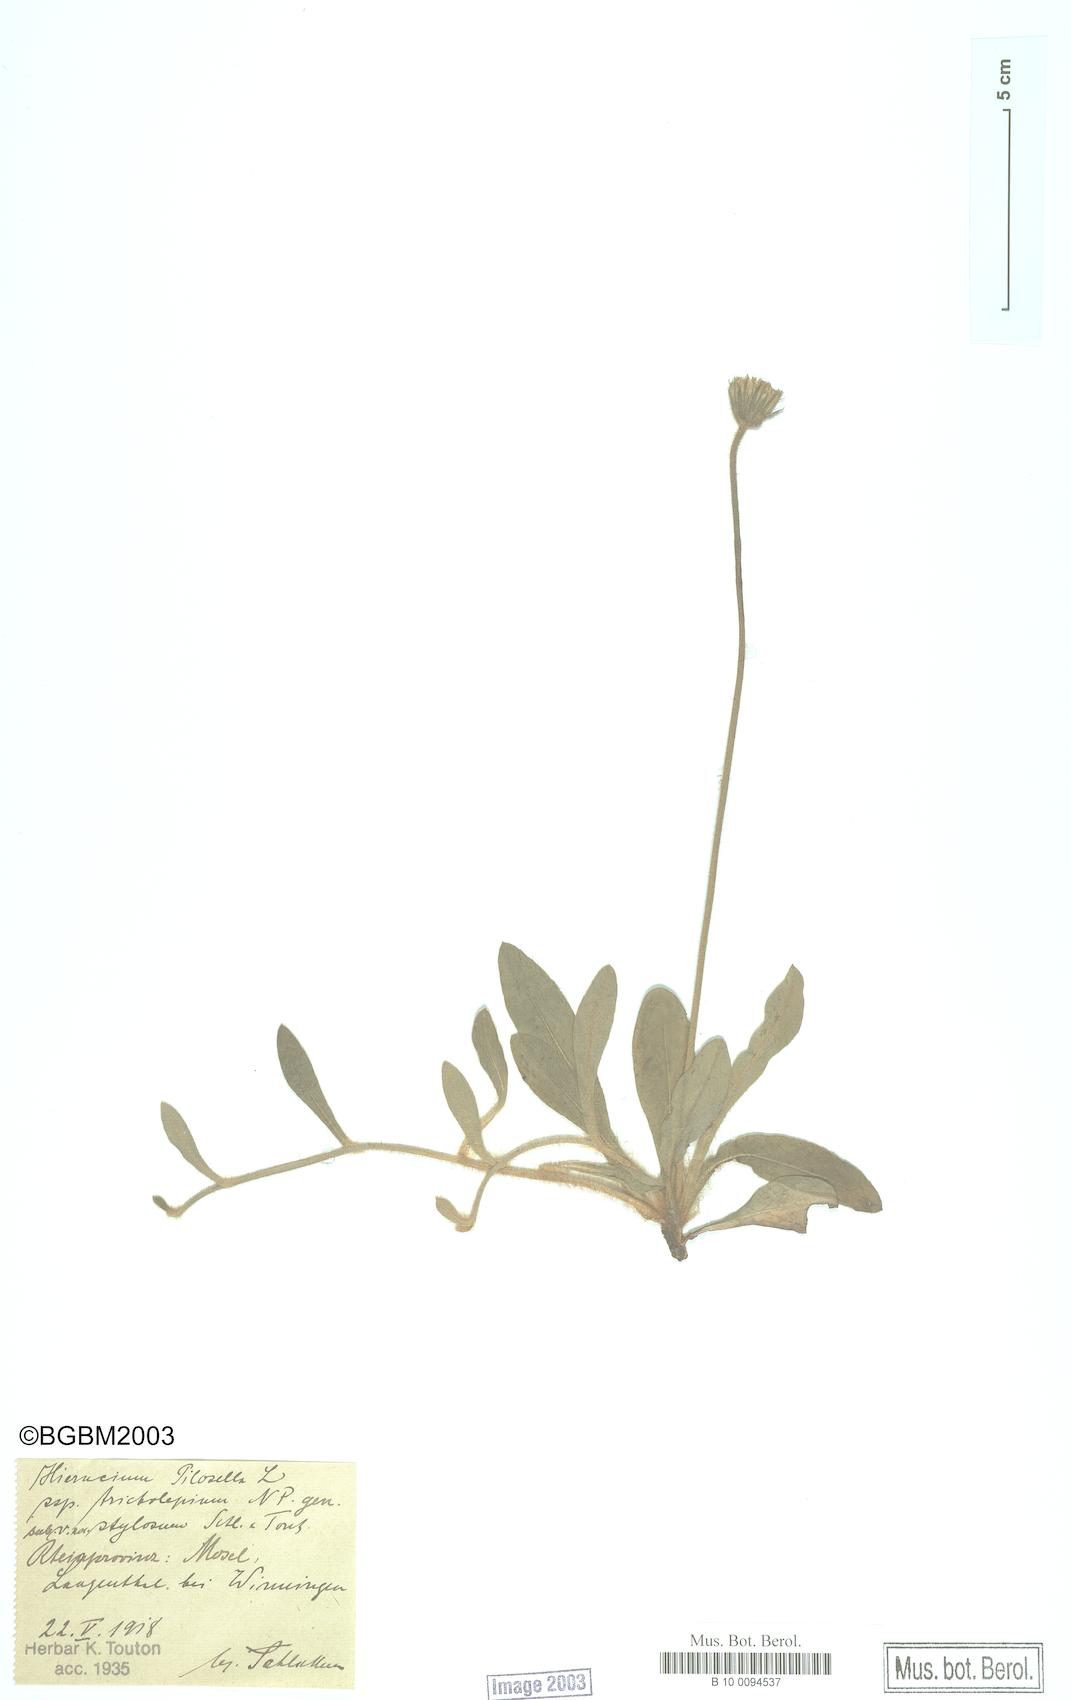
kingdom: Plantae
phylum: Tracheophyta
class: Magnoliopsida
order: Asterales
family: Asteraceae
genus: Pilosella
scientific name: Pilosella officinarum
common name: Mouse-ear hawkweed
